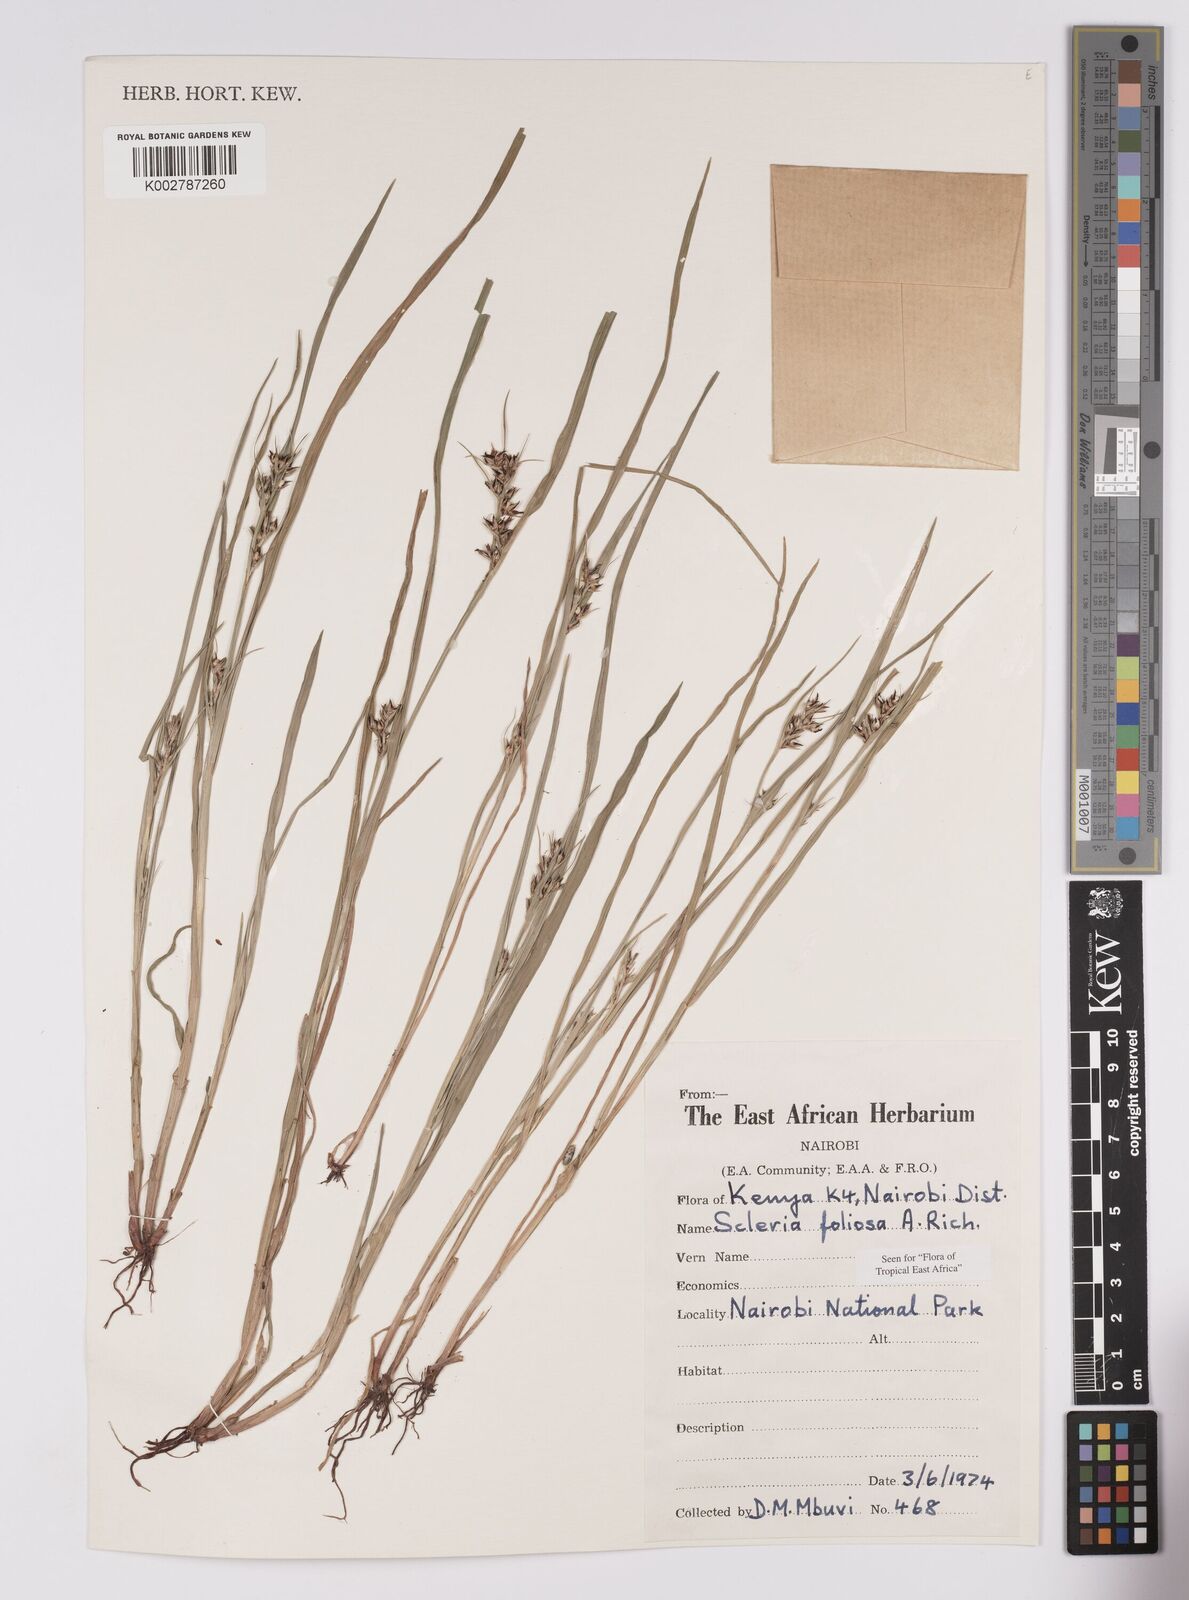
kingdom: Plantae
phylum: Tracheophyta
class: Liliopsida
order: Poales
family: Cyperaceae
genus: Scleria
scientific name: Scleria foliosa
